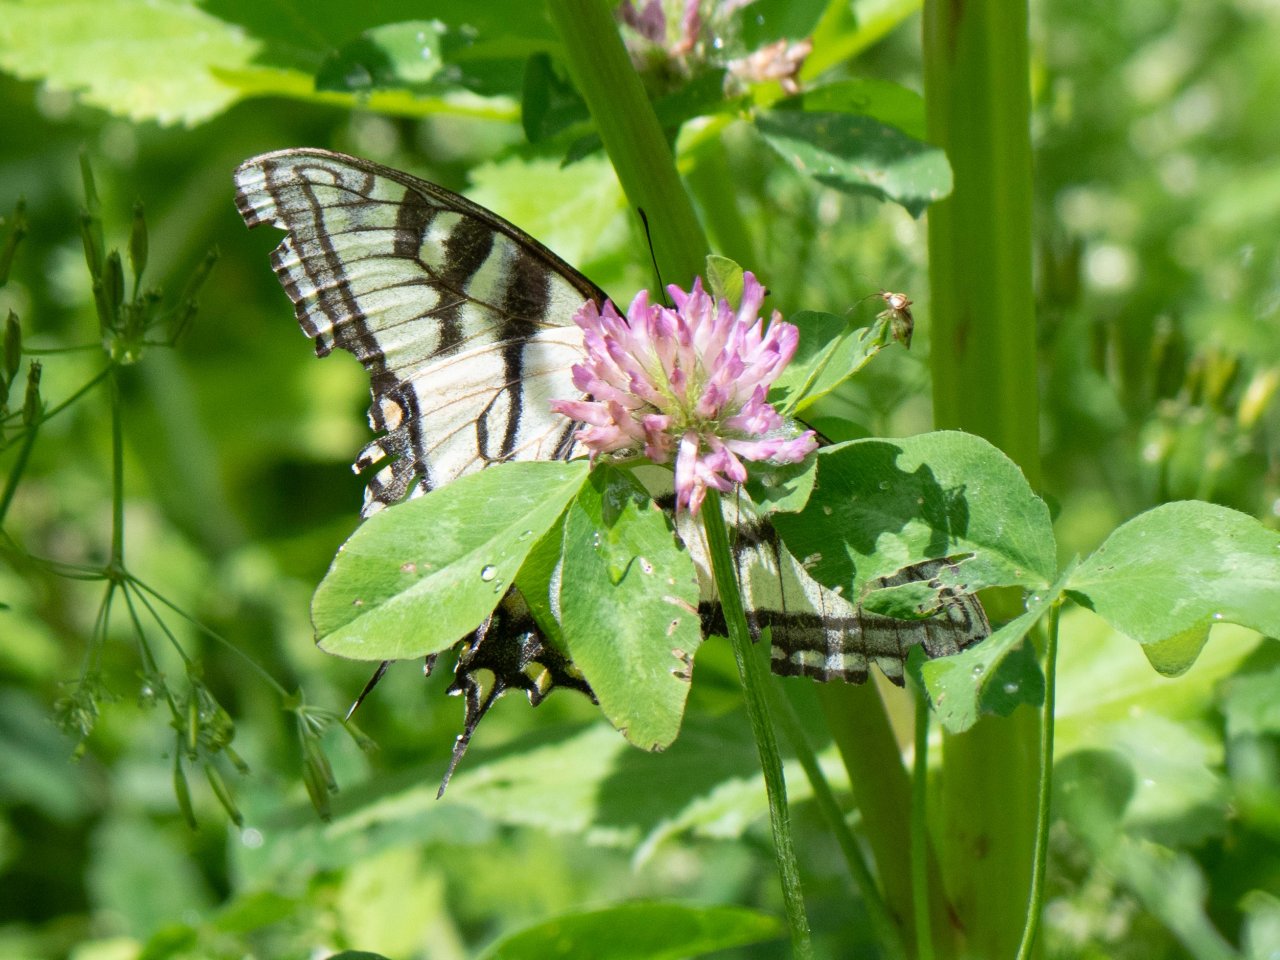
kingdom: Animalia
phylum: Arthropoda
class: Insecta
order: Lepidoptera
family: Papilionidae
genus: Pterourus
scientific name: Pterourus canadensis
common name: Canadian Tiger Swallowtail
